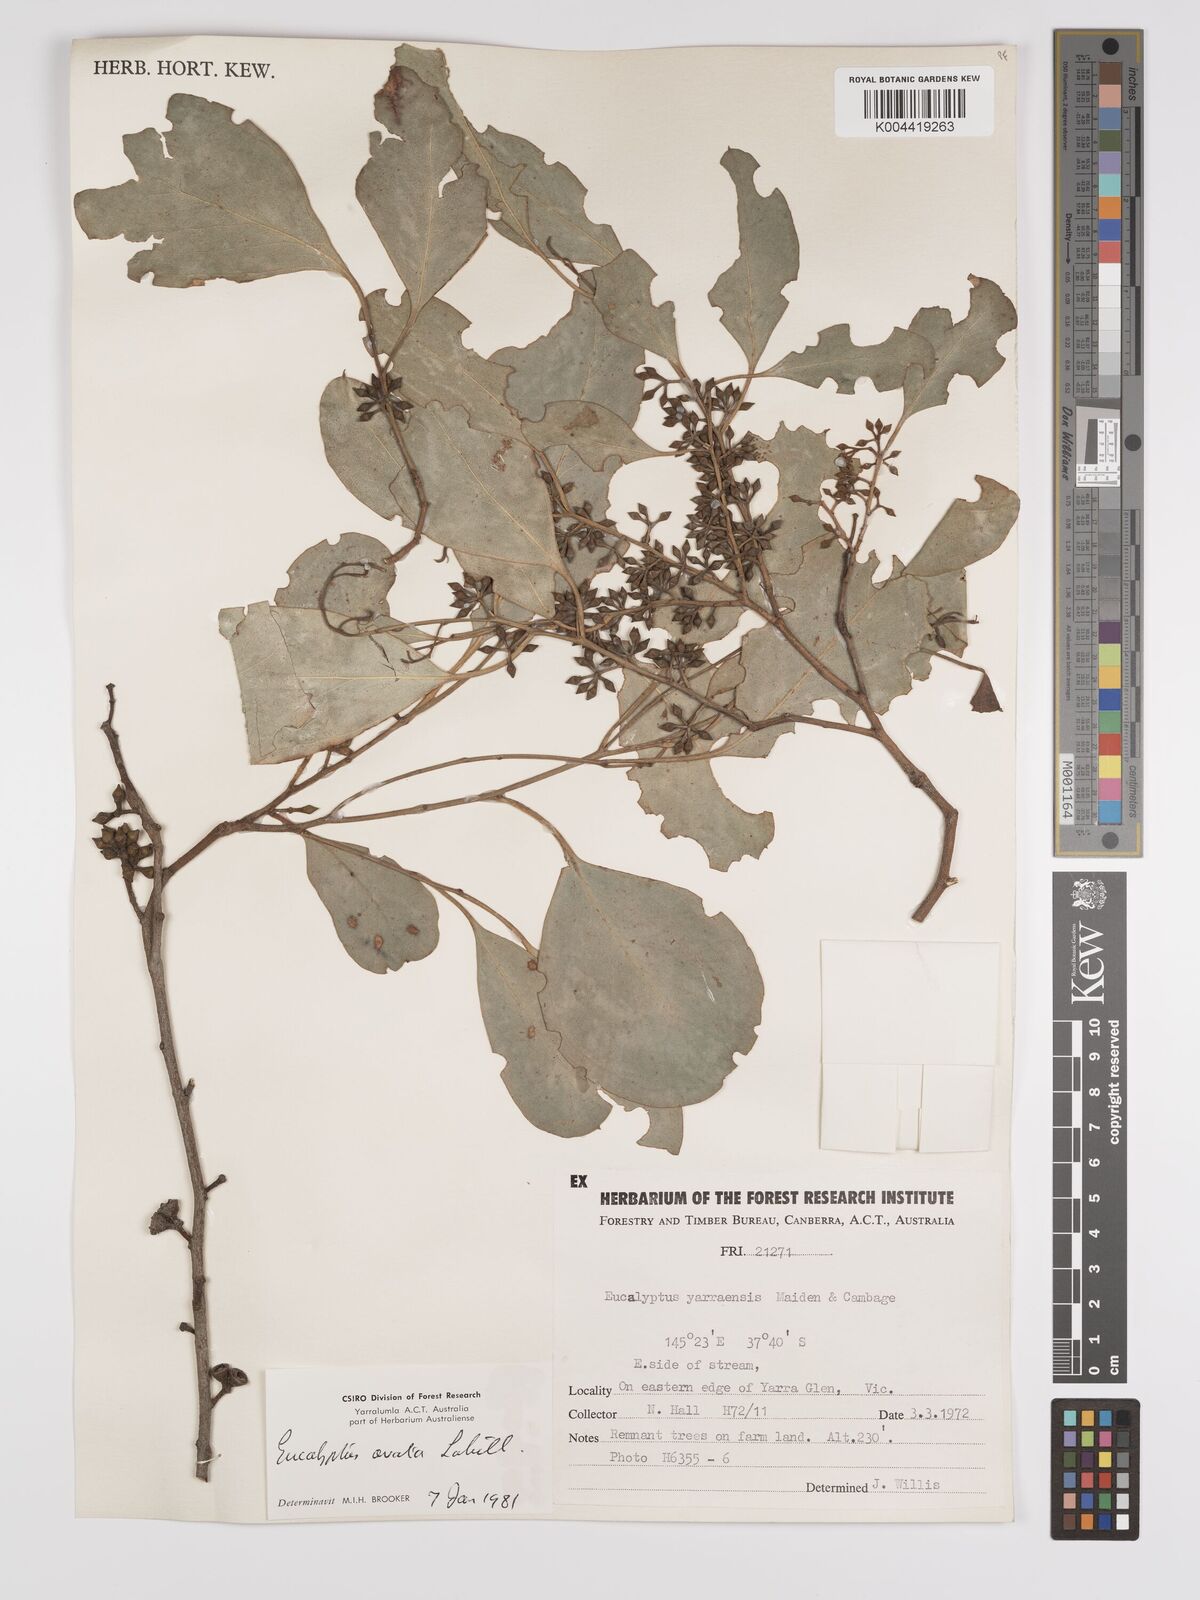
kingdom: Plantae
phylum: Tracheophyta
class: Magnoliopsida
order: Myrtales
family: Myrtaceae
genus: Eucalyptus
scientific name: Eucalyptus ovata
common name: Black-gum
